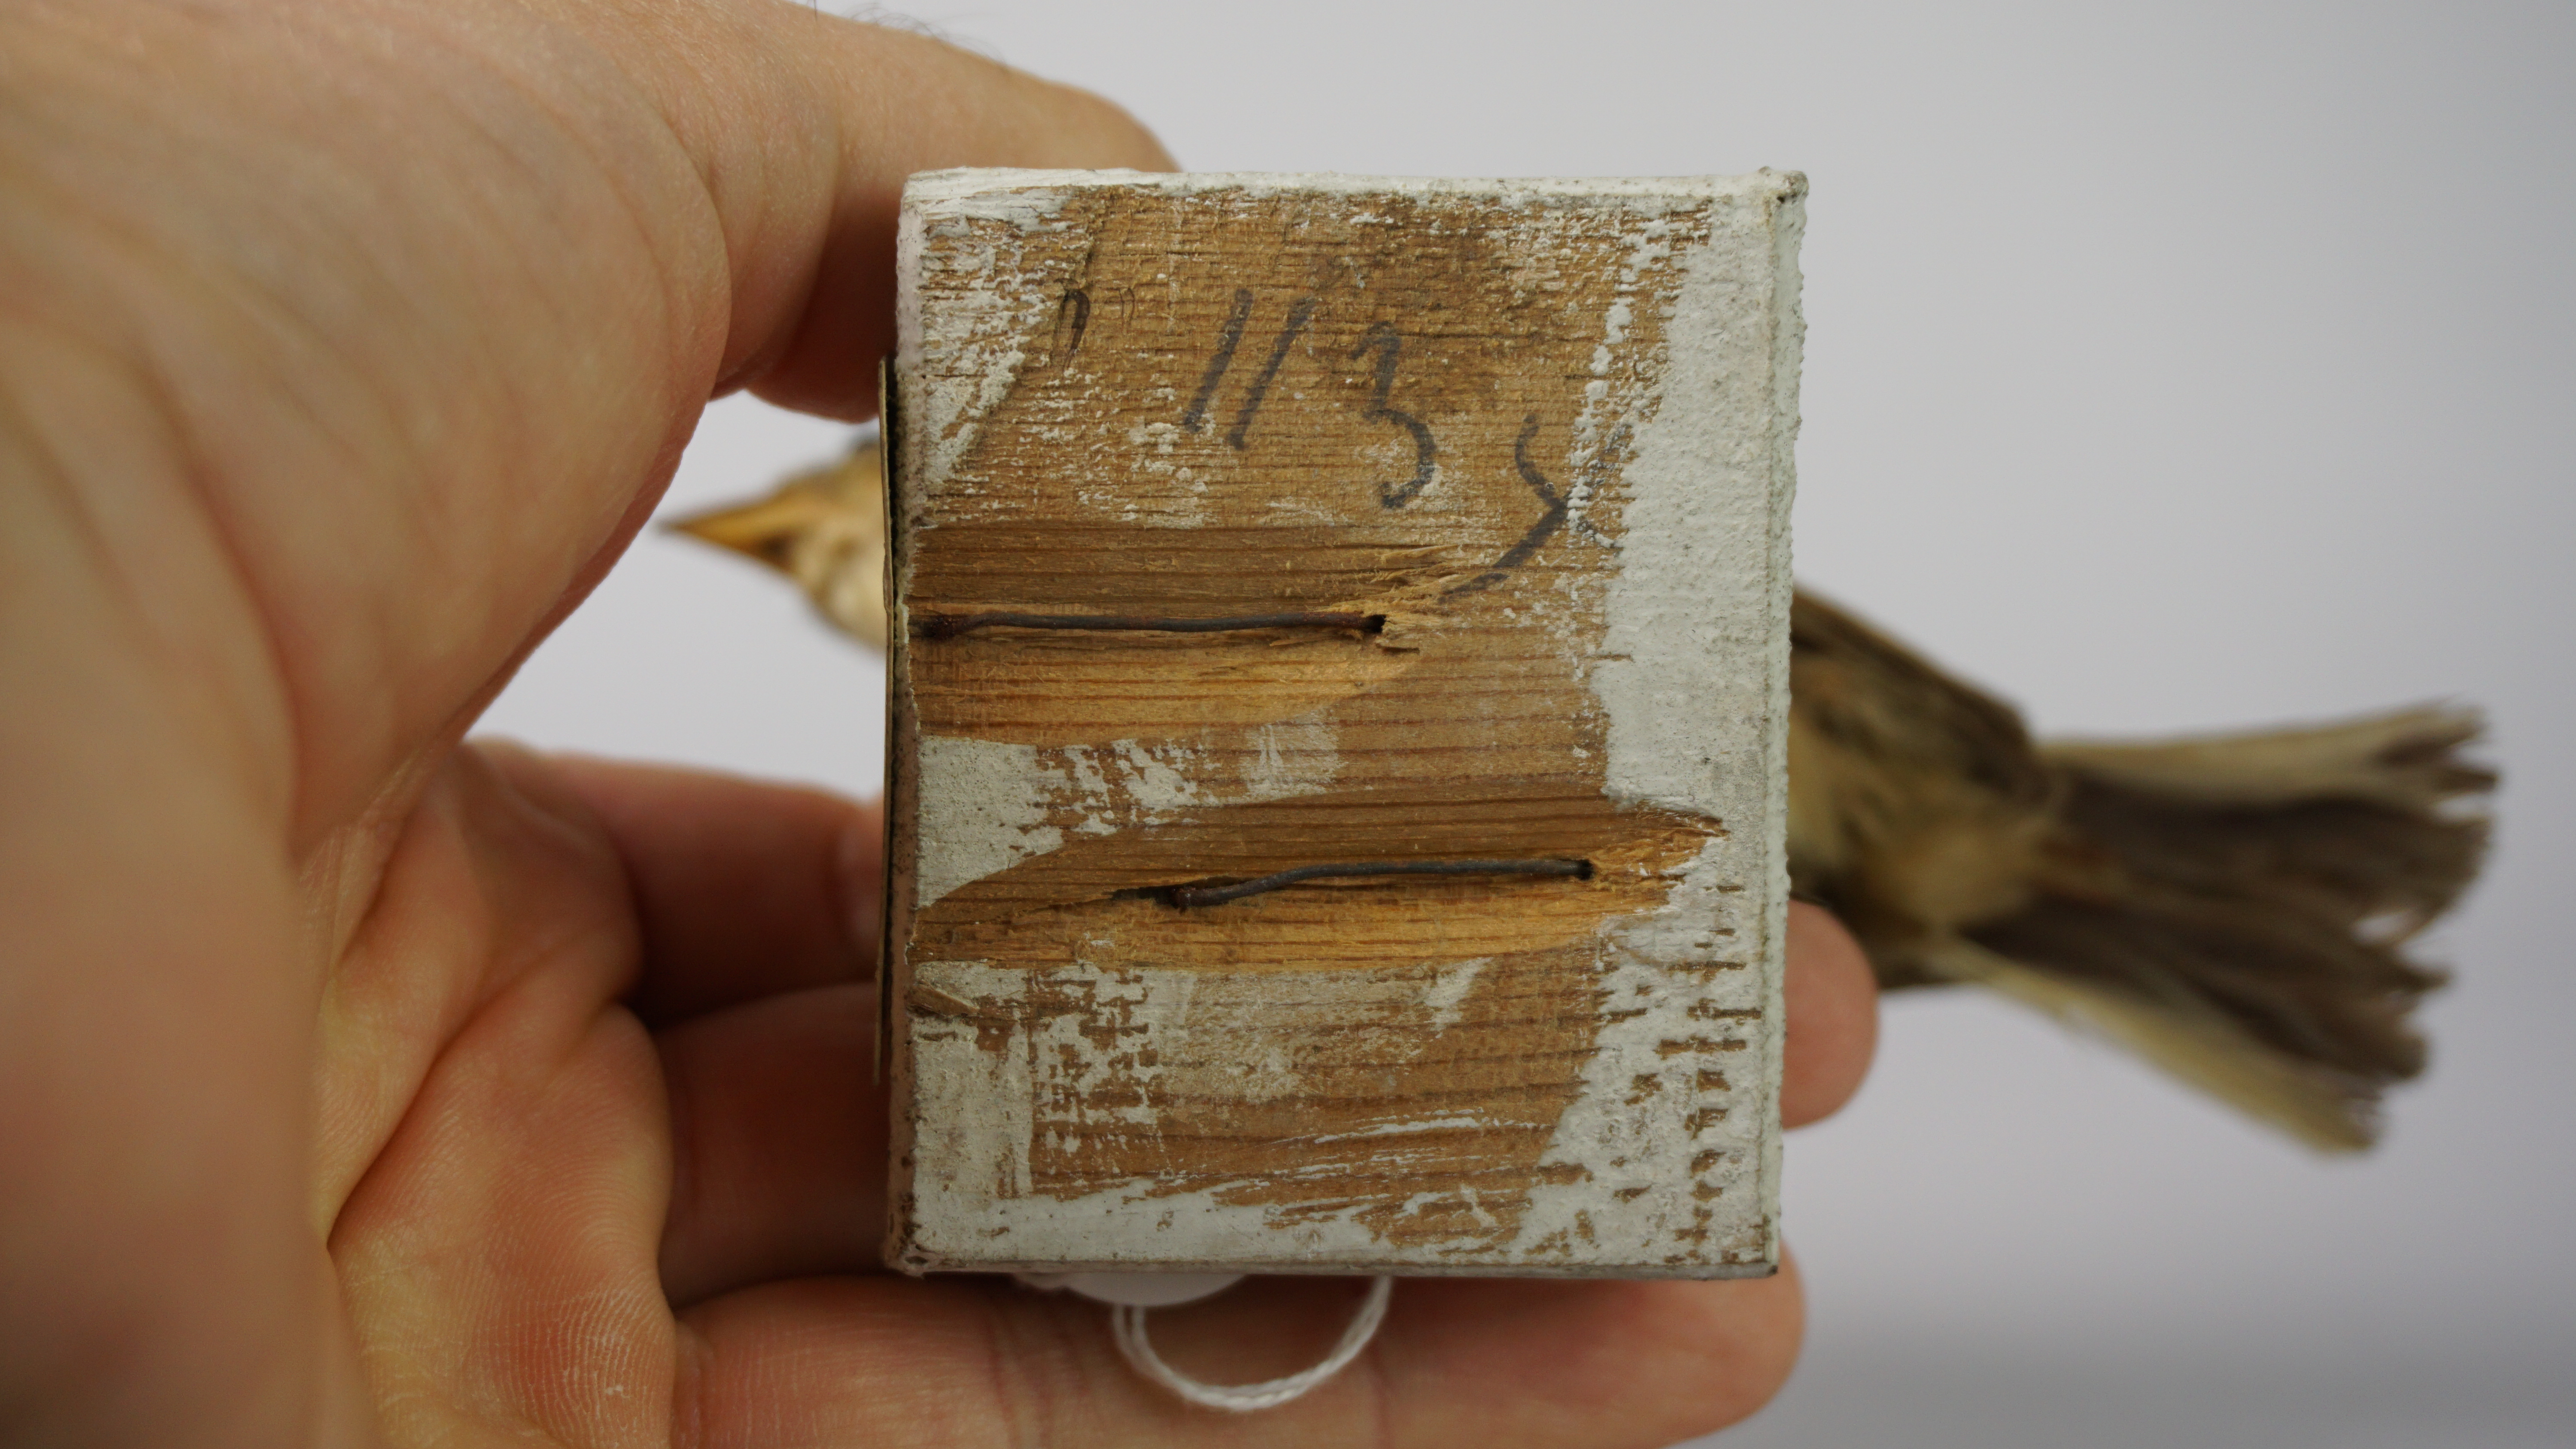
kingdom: Animalia
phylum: Chordata
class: Aves
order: Passeriformes
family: Alaudidae
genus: Mirafra
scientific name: Mirafra javanica
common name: Horsfield's bush lark
